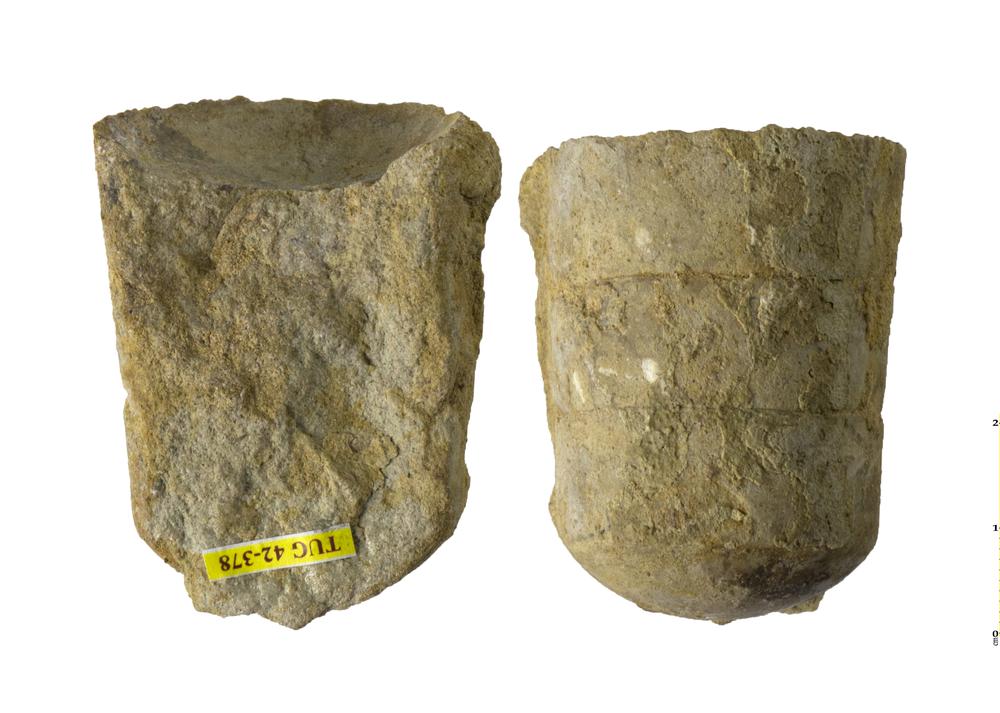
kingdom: Animalia
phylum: Mollusca
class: Cephalopoda
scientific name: Cephalopoda
